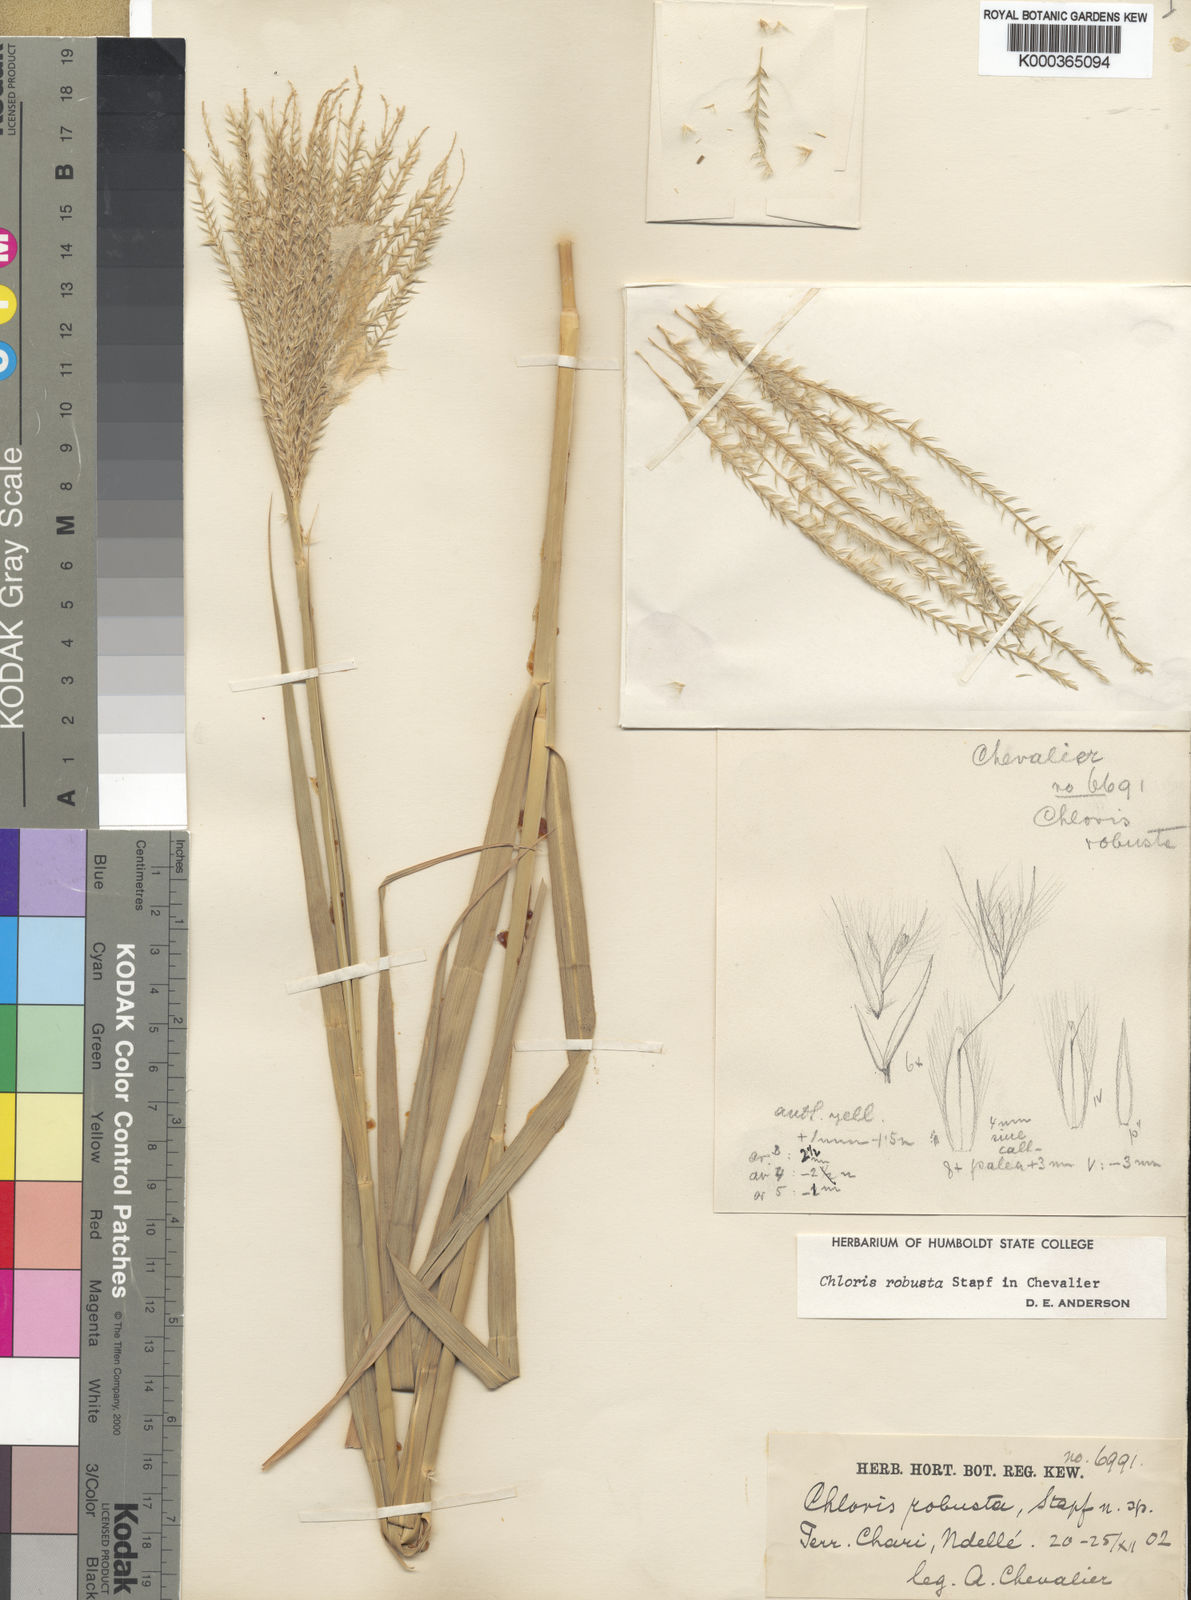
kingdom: Plantae
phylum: Tracheophyta
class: Liliopsida
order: Poales
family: Poaceae
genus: Chloris
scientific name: Chloris robusta
